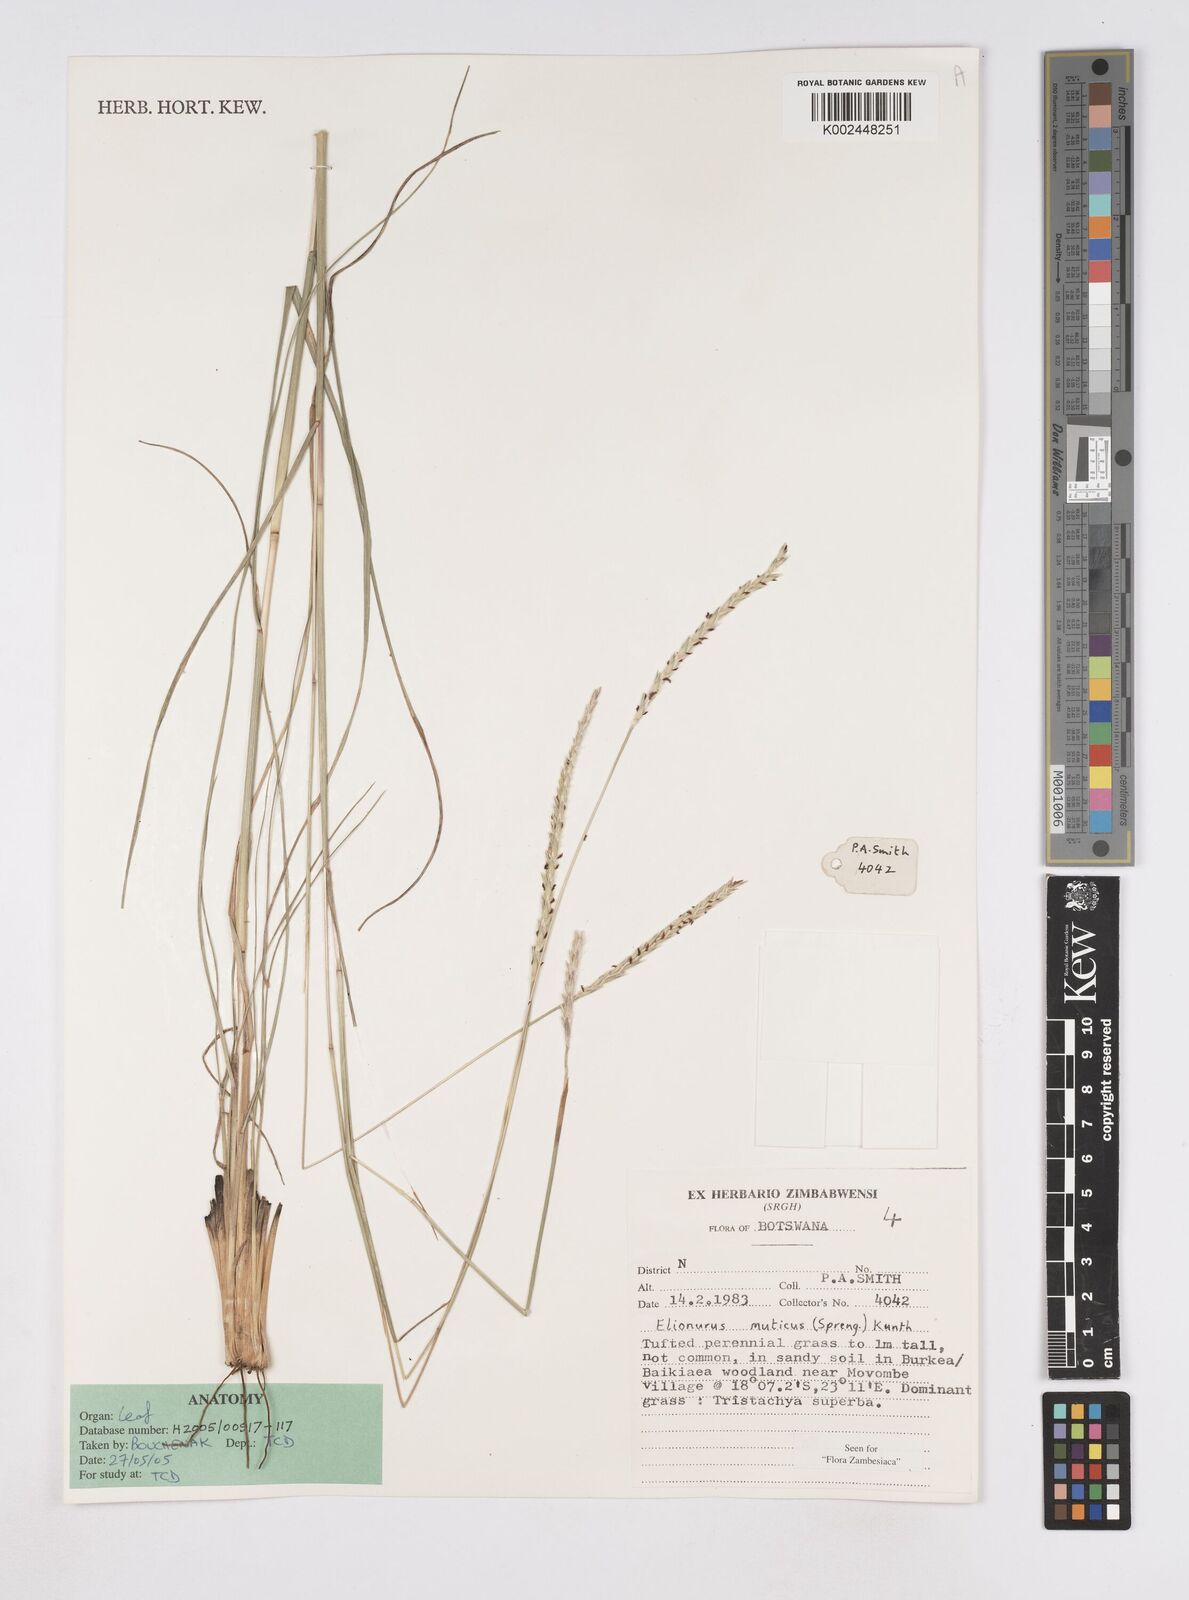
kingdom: Plantae
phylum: Tracheophyta
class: Liliopsida
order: Poales
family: Poaceae
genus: Elionurus
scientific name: Elionurus muticus
